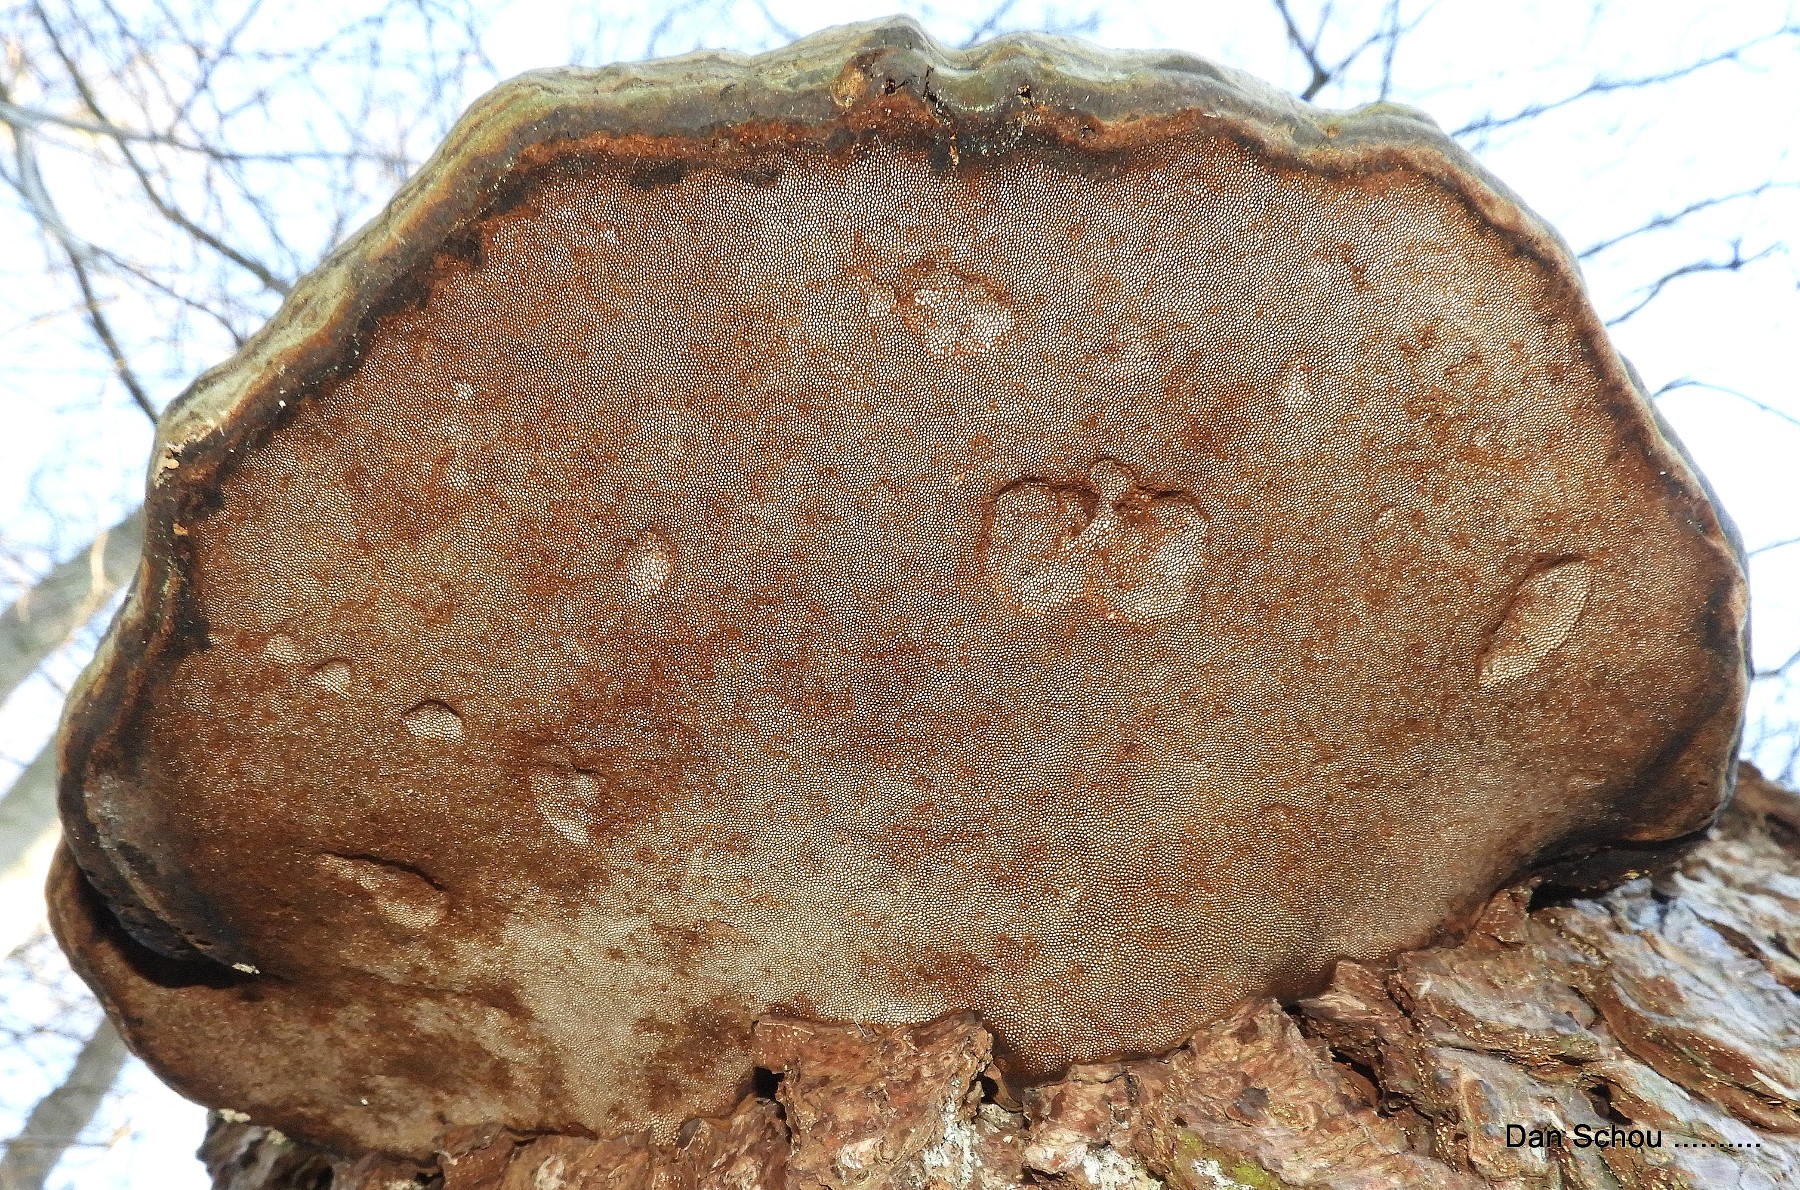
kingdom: Fungi
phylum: Basidiomycota
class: Agaricomycetes
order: Polyporales
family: Polyporaceae
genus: Fomes
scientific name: Fomes fomentarius
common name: tøndersvamp
